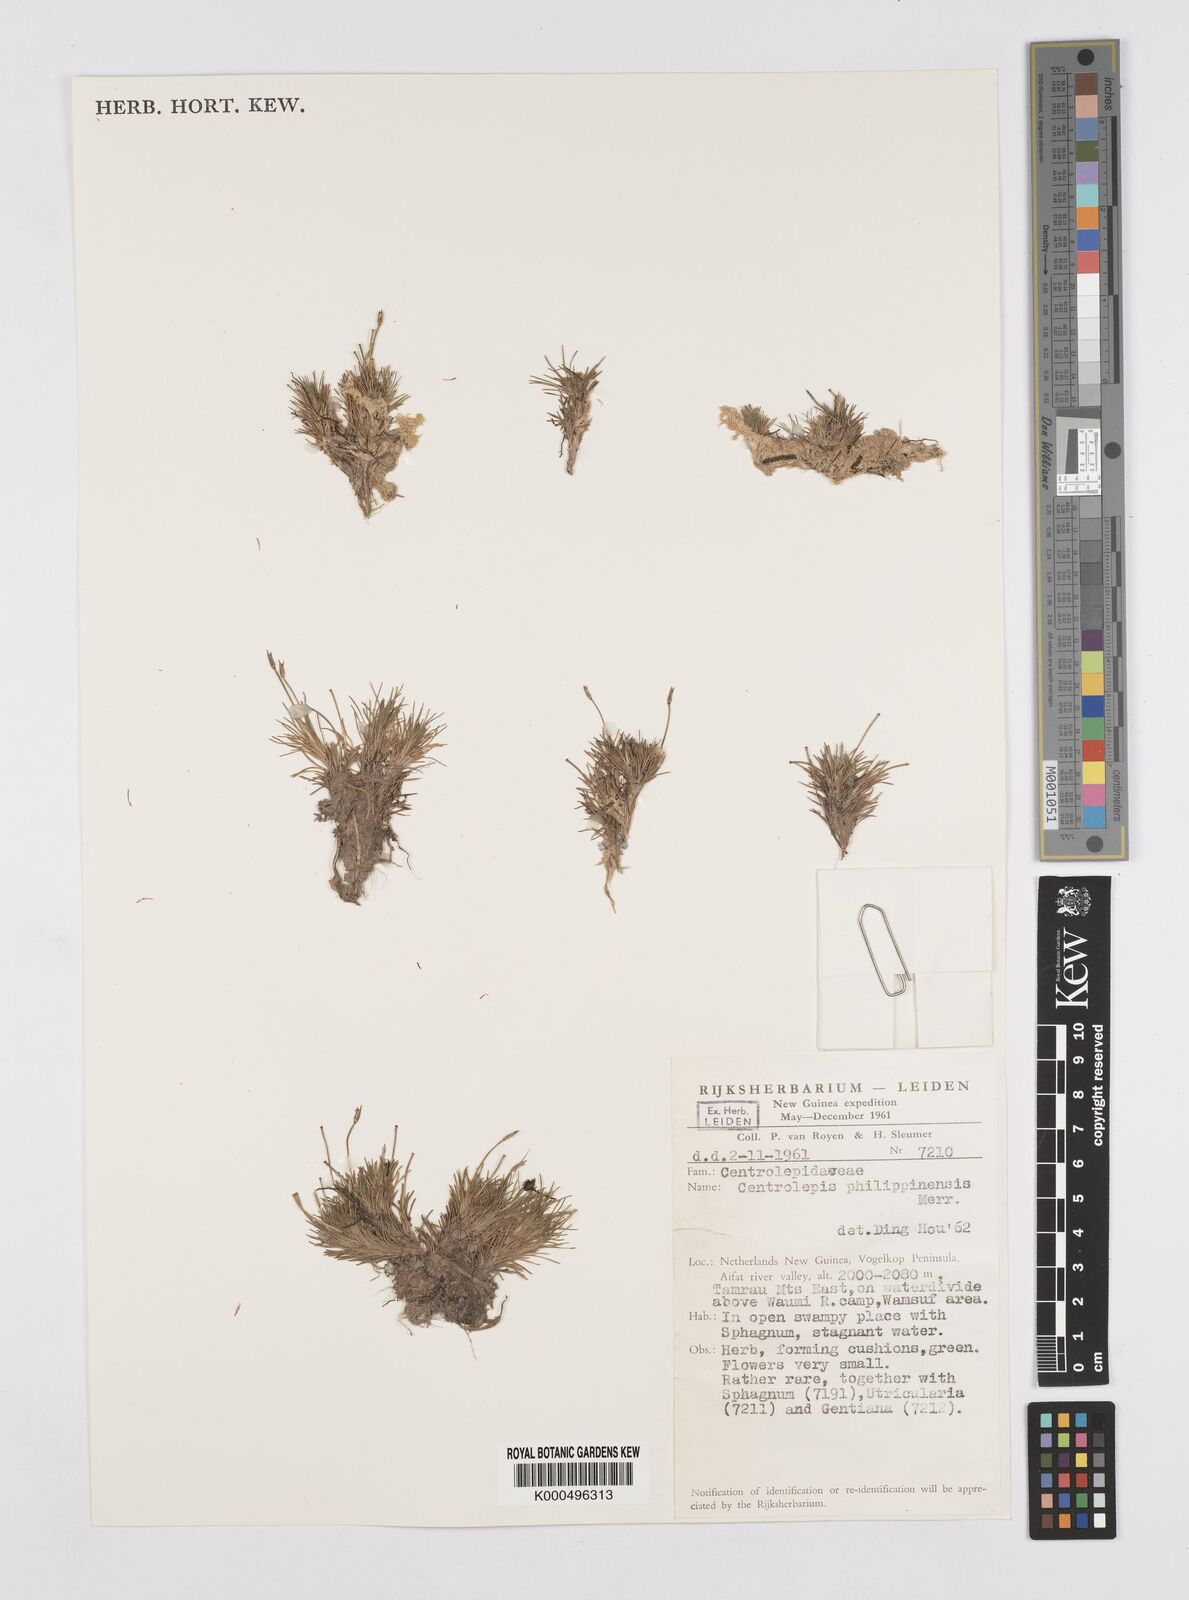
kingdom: Plantae
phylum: Tracheophyta
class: Liliopsida
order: Poales
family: Restionaceae
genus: Centrolepis
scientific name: Centrolepis philippinensis
